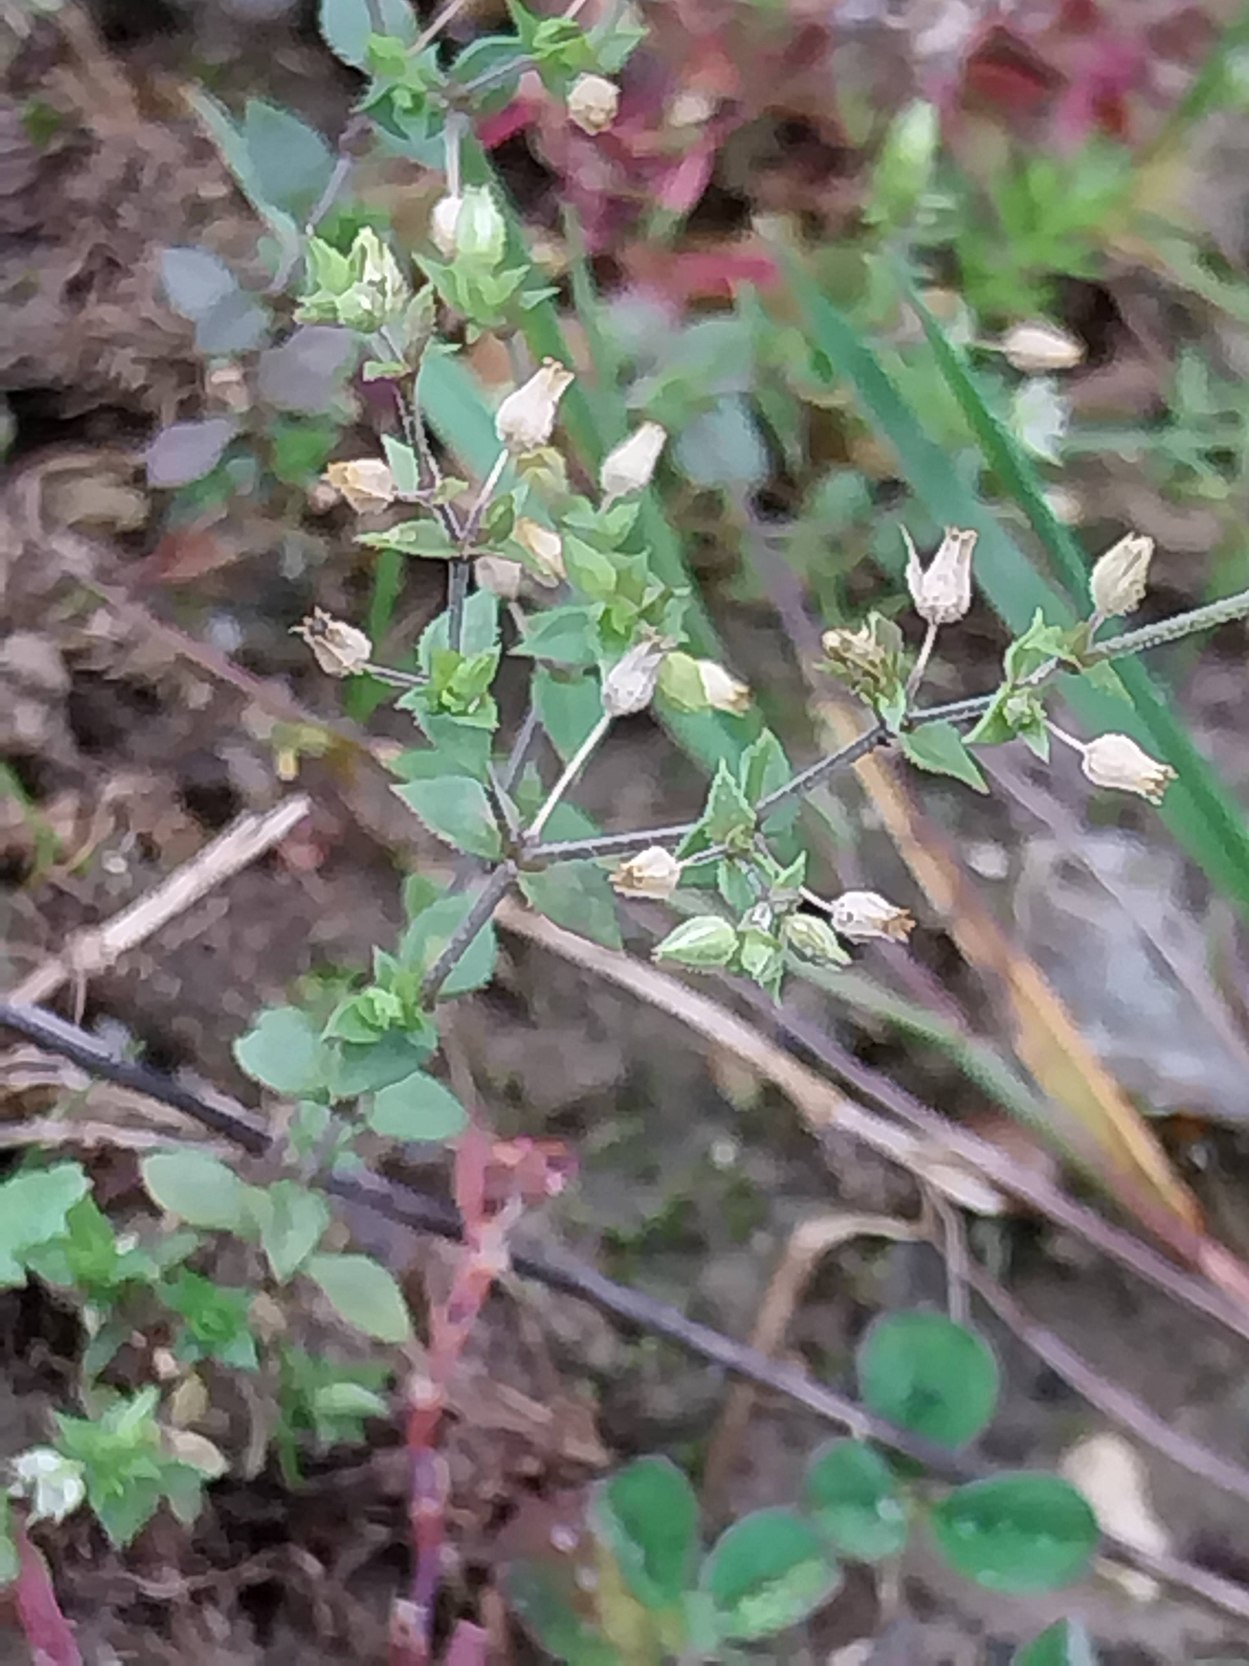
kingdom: Plantae
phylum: Tracheophyta
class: Magnoliopsida
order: Caryophyllales
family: Caryophyllaceae
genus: Arenaria
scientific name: Arenaria serpyllifolia
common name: Almindelig markarve
